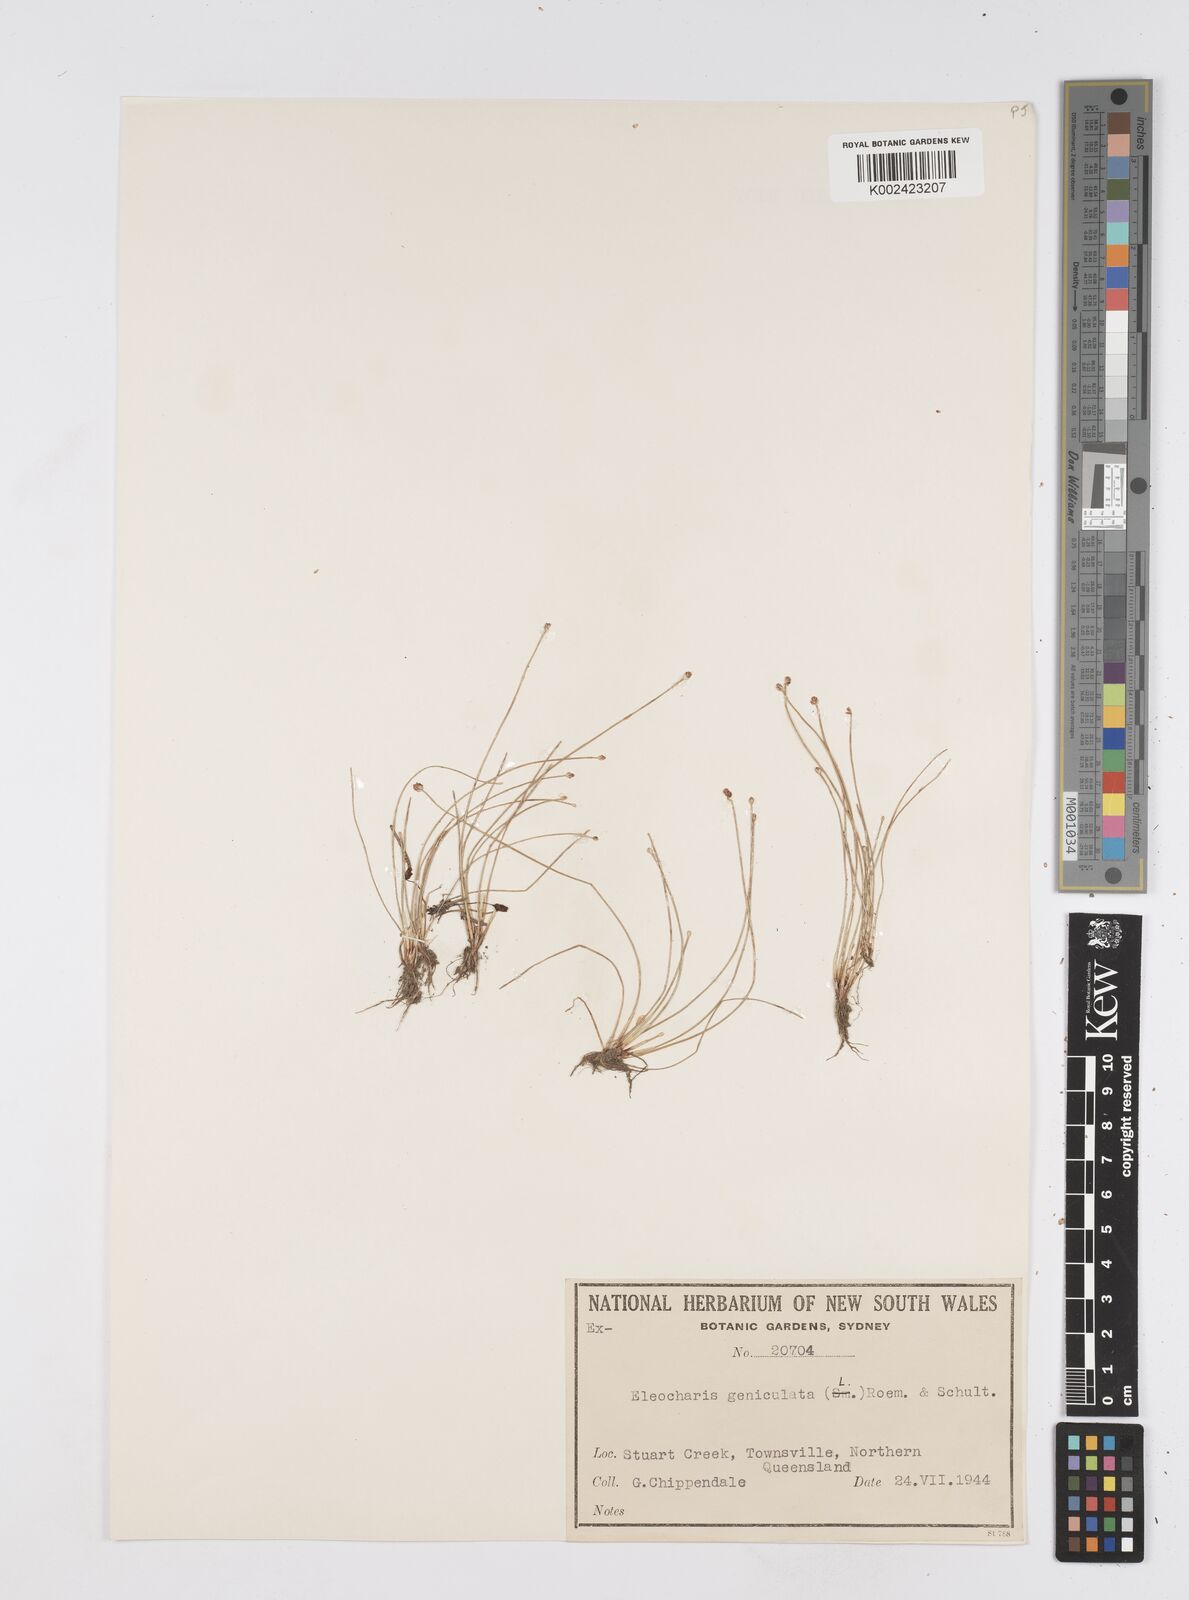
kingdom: Plantae
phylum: Tracheophyta
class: Liliopsida
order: Poales
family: Cyperaceae
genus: Eleocharis
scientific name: Eleocharis geniculata
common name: Canada spikesedge
